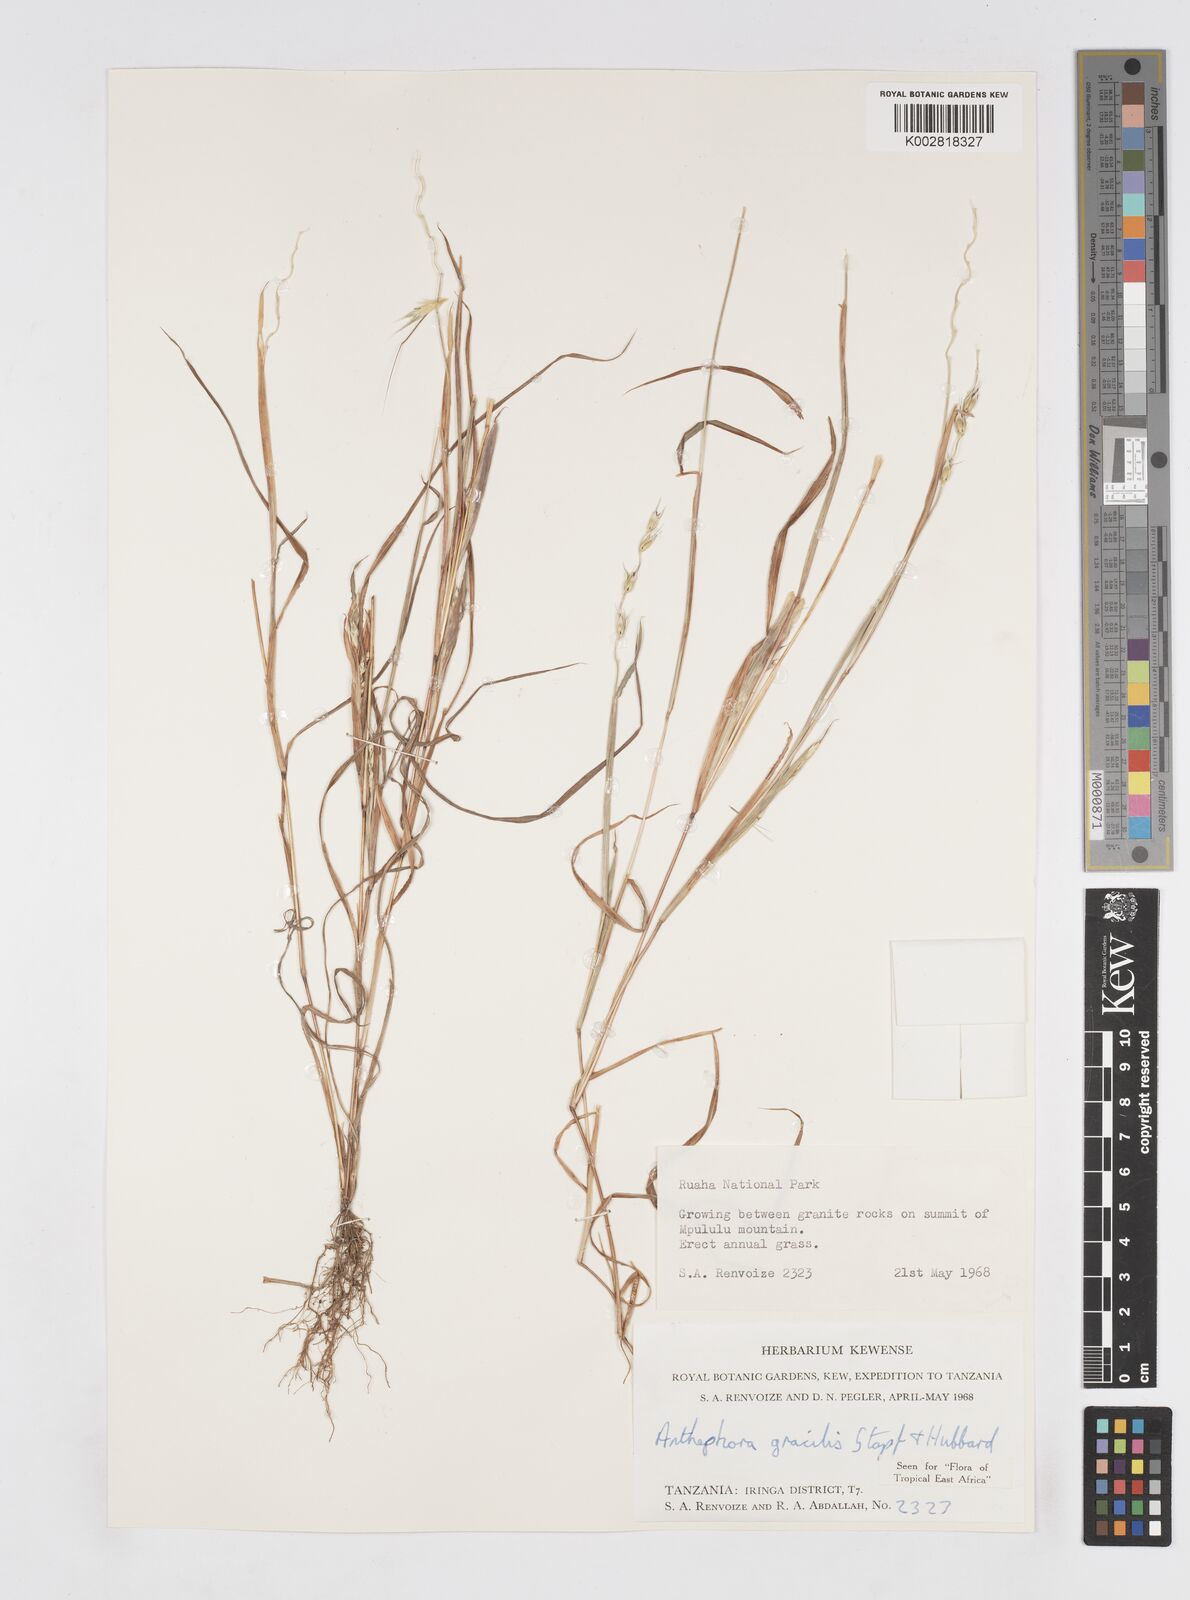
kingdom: Plantae
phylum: Tracheophyta
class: Liliopsida
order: Poales
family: Poaceae
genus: Anthephora
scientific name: Anthephora truncata
